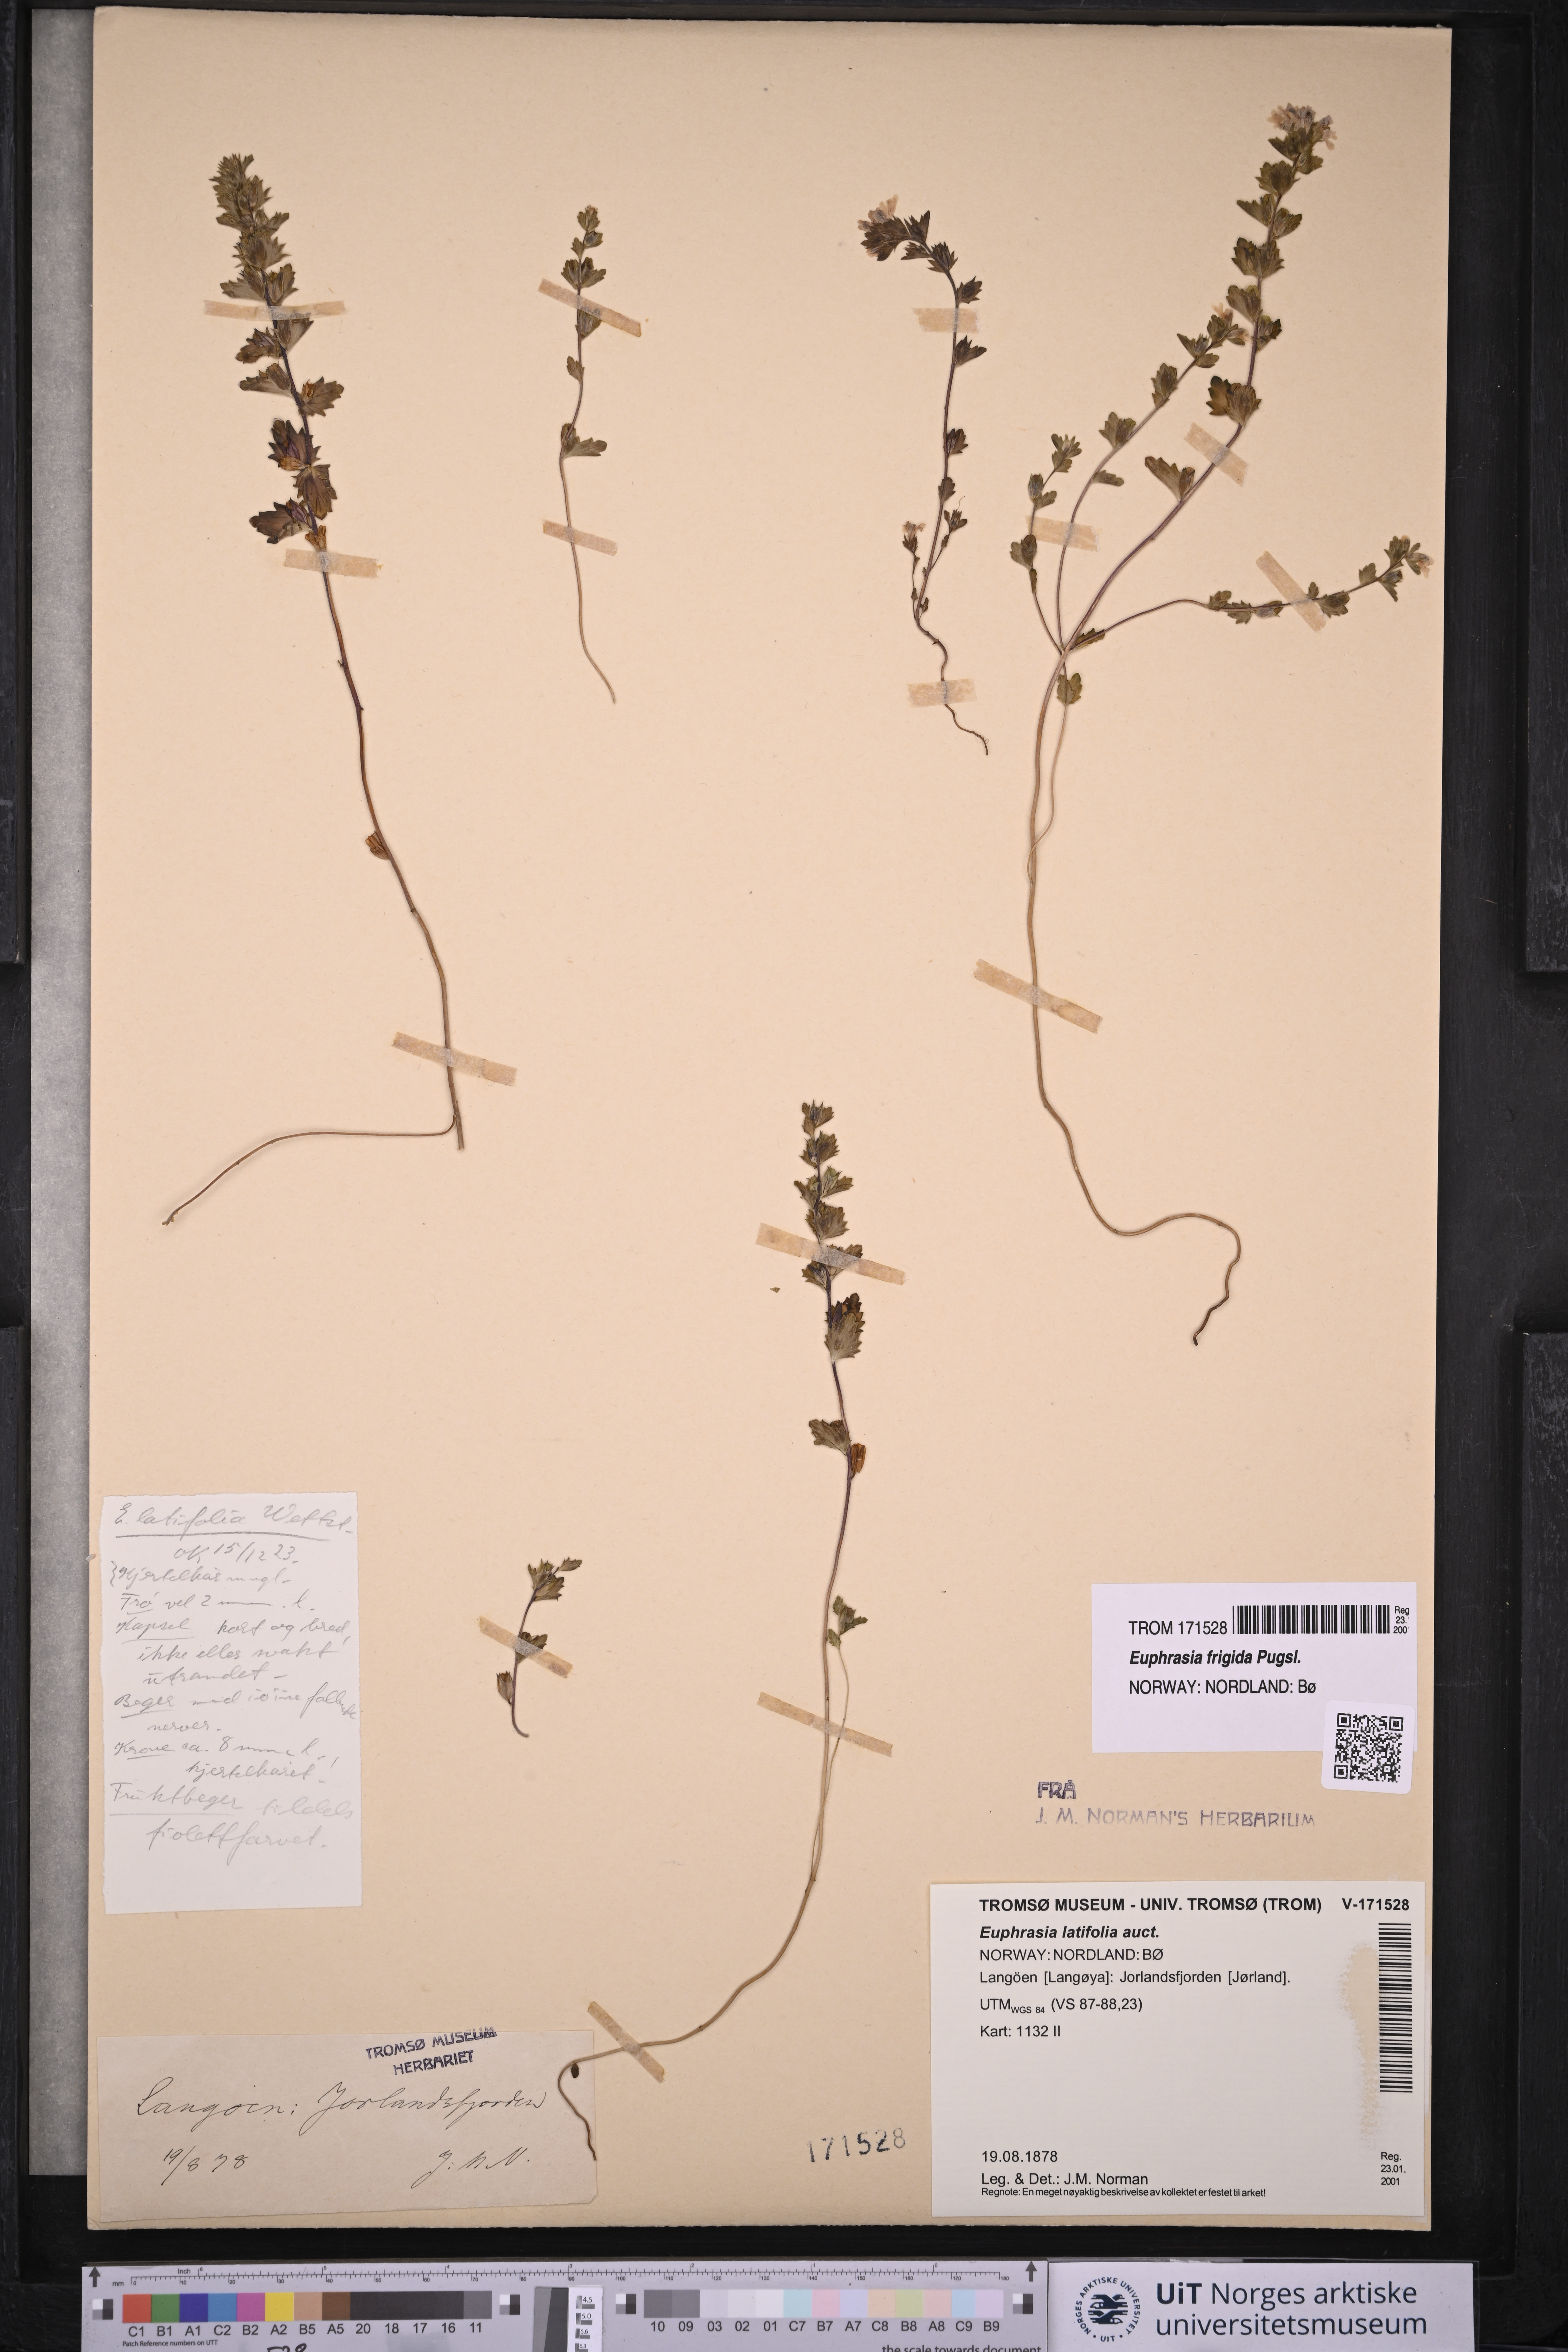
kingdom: Plantae
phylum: Tracheophyta
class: Magnoliopsida
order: Lamiales
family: Orobanchaceae
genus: Euphrasia
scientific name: Euphrasia wettsteinii
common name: Wettstein's eyebright
